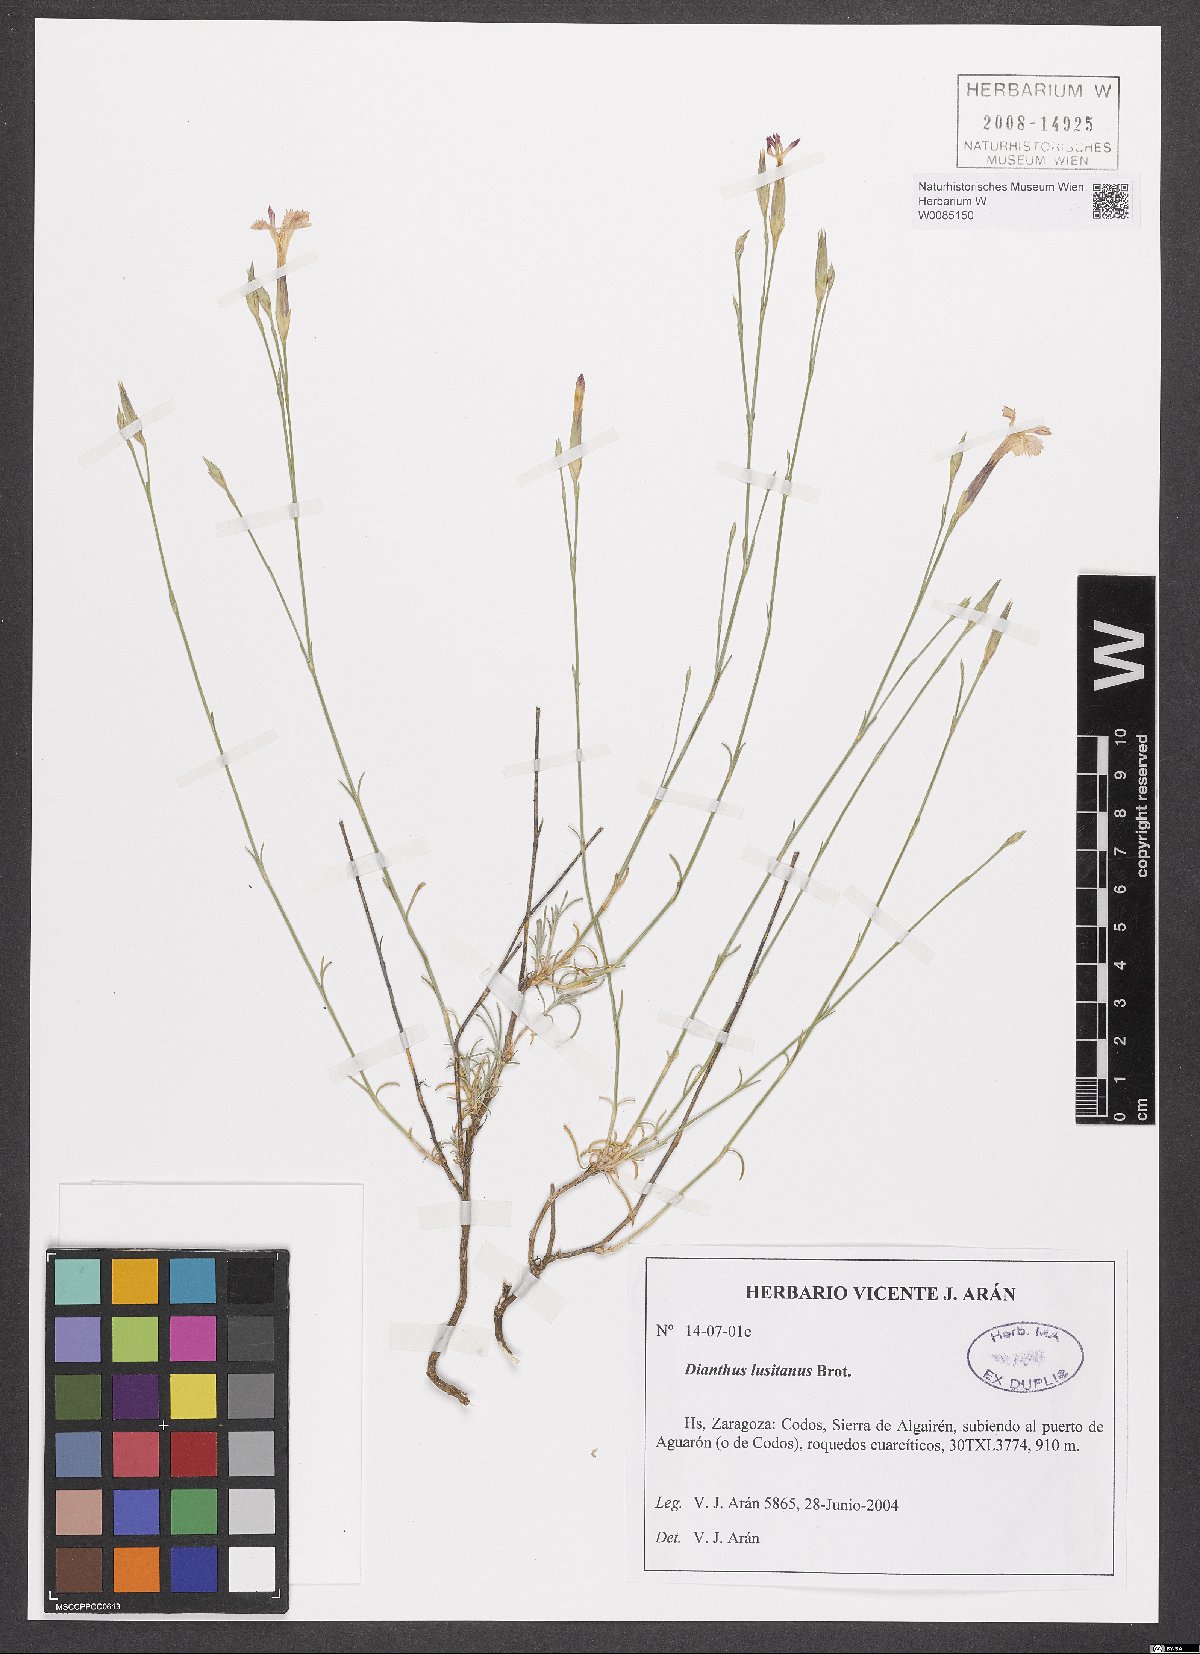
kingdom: Plantae
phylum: Tracheophyta
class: Magnoliopsida
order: Caryophyllales
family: Caryophyllaceae
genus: Dianthus
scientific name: Dianthus lusitanus
